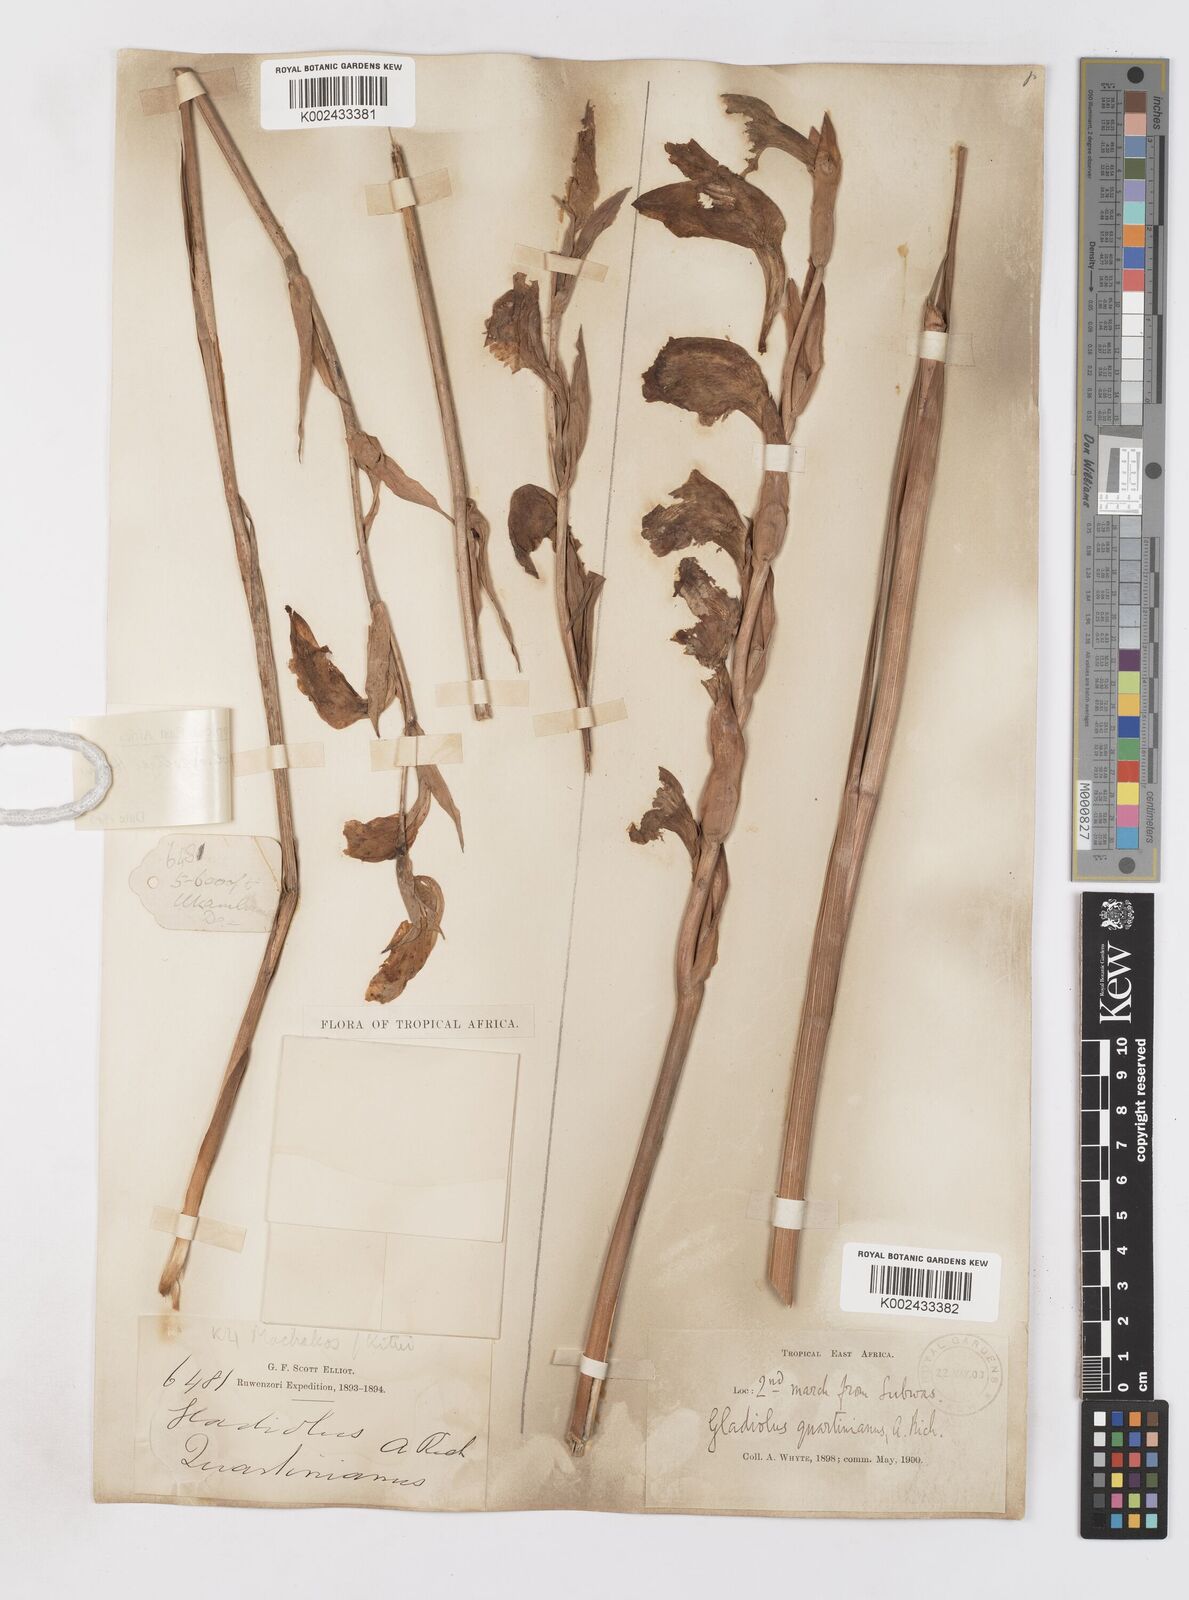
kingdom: Plantae
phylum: Tracheophyta
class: Liliopsida
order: Asparagales
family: Iridaceae
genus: Gladiolus
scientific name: Gladiolus dalenii
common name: Cornflag
